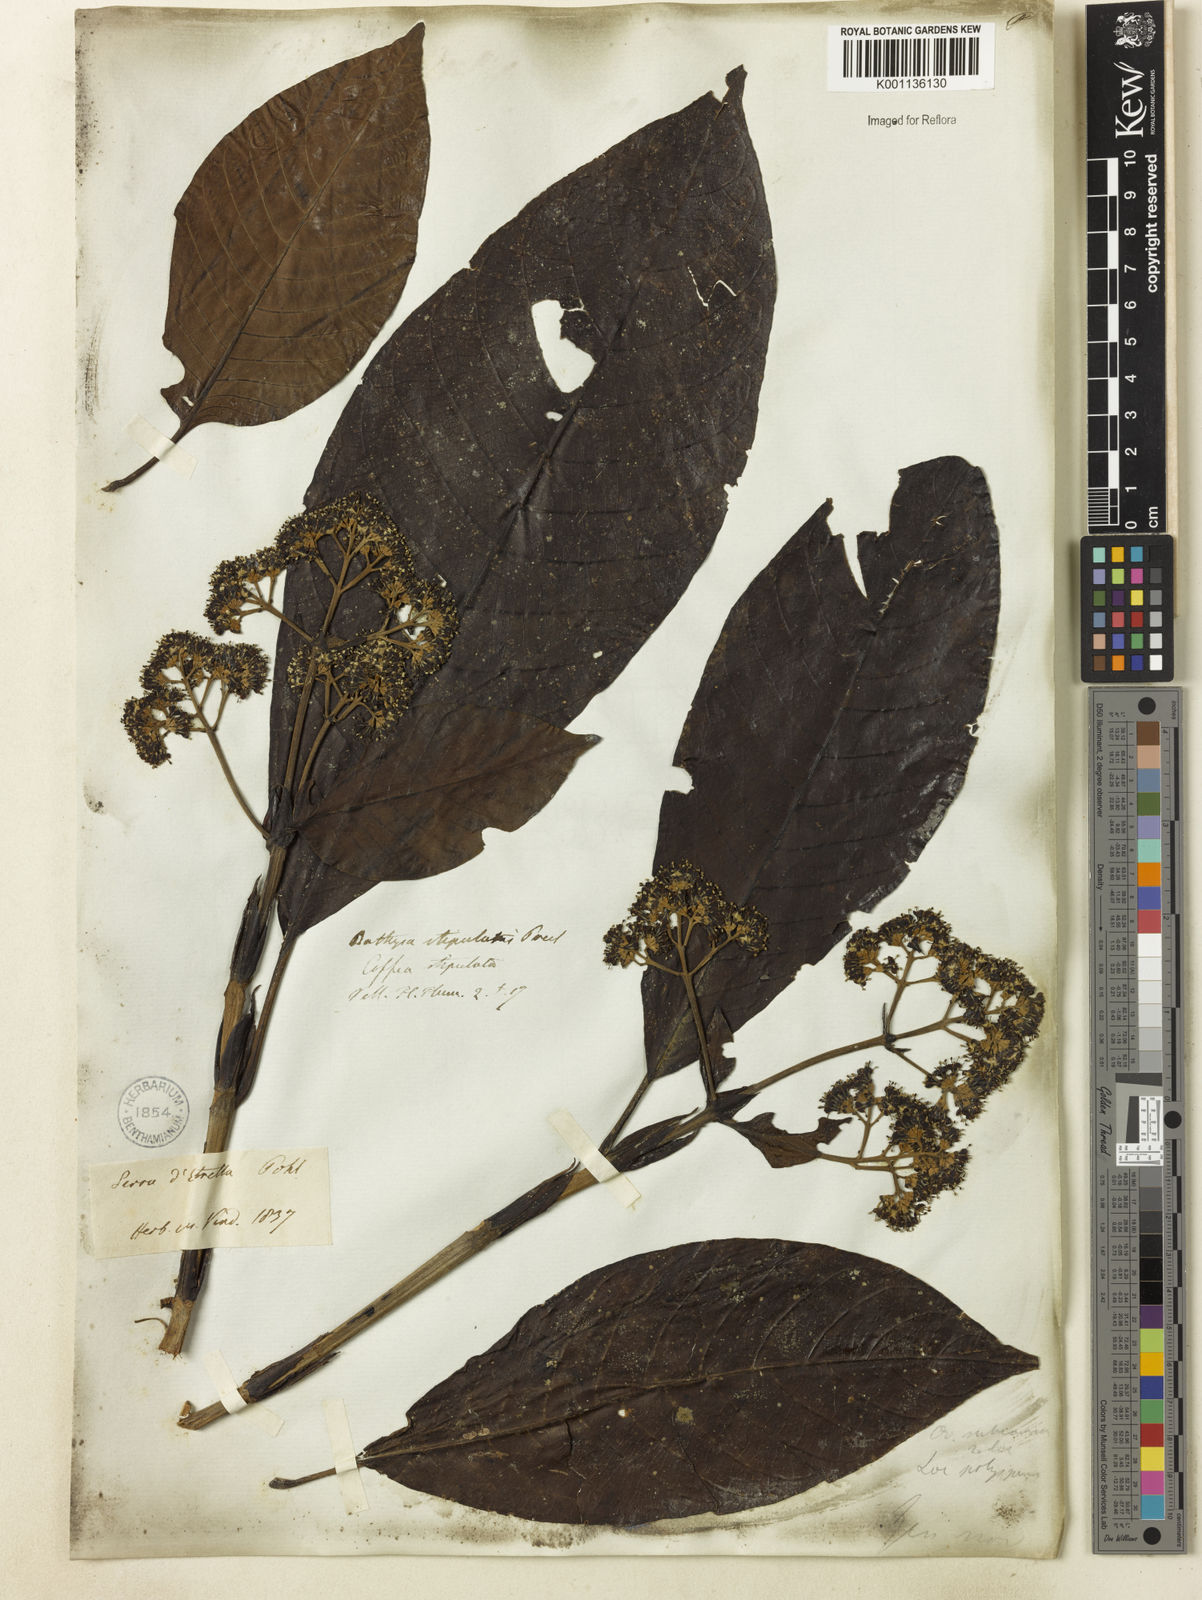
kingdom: Plantae
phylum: Tracheophyta
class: Magnoliopsida
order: Gentianales
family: Rubiaceae
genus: Bathysa
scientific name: Bathysa stipulata
